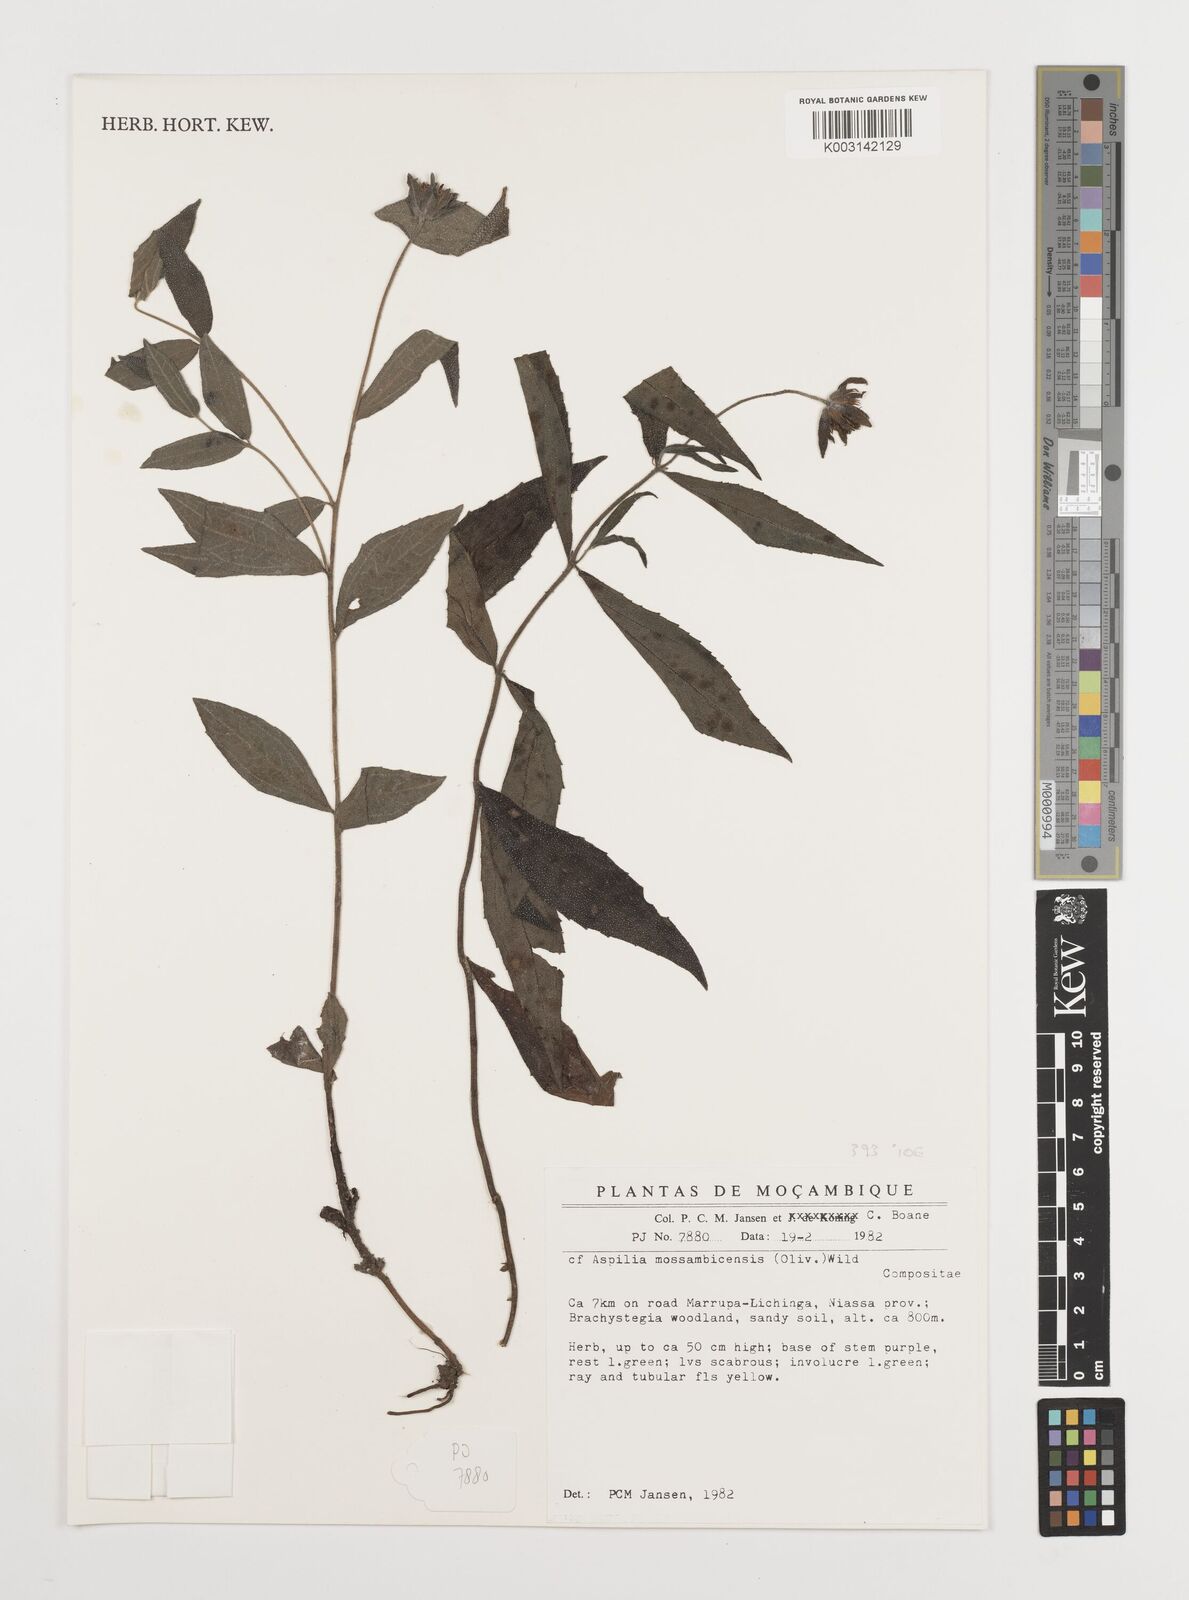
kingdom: Plantae
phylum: Tracheophyta
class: Magnoliopsida
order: Asterales
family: Asteraceae
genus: Aspilia
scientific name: Aspilia mossambicensis
